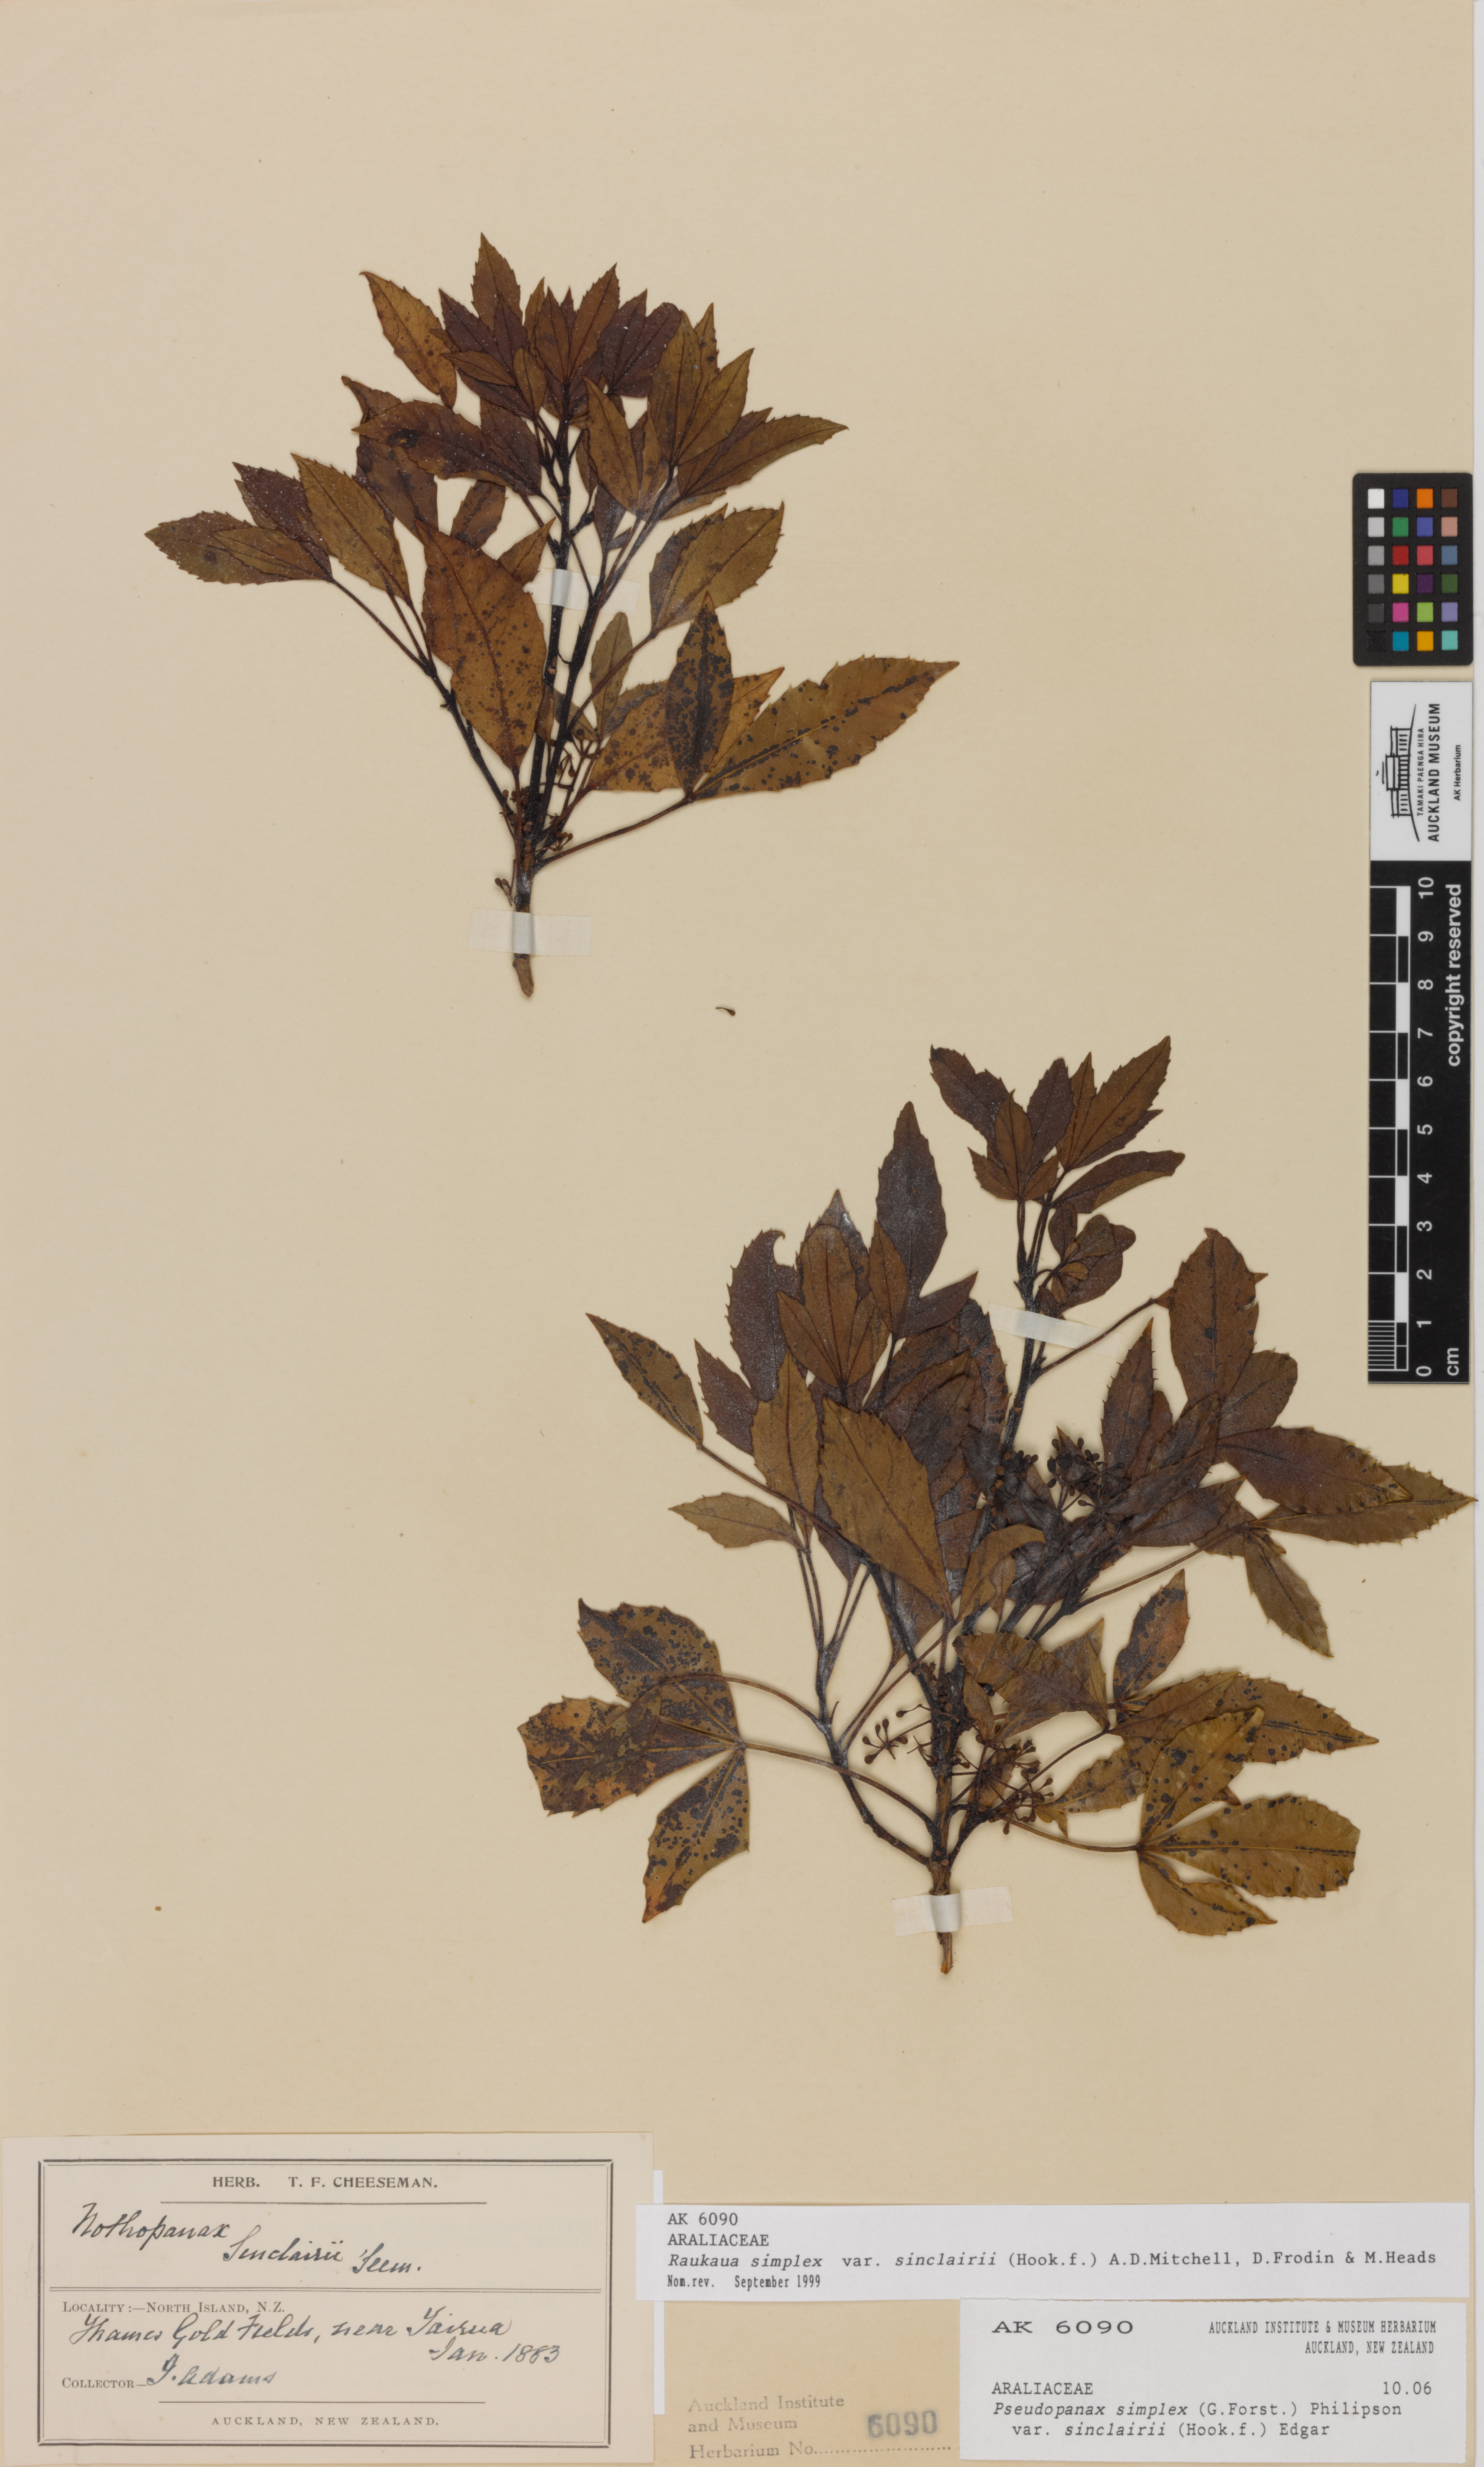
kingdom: Plantae
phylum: Tracheophyta
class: Magnoliopsida
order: Apiales
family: Araliaceae
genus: Raukaua
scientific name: Raukaua simplex
